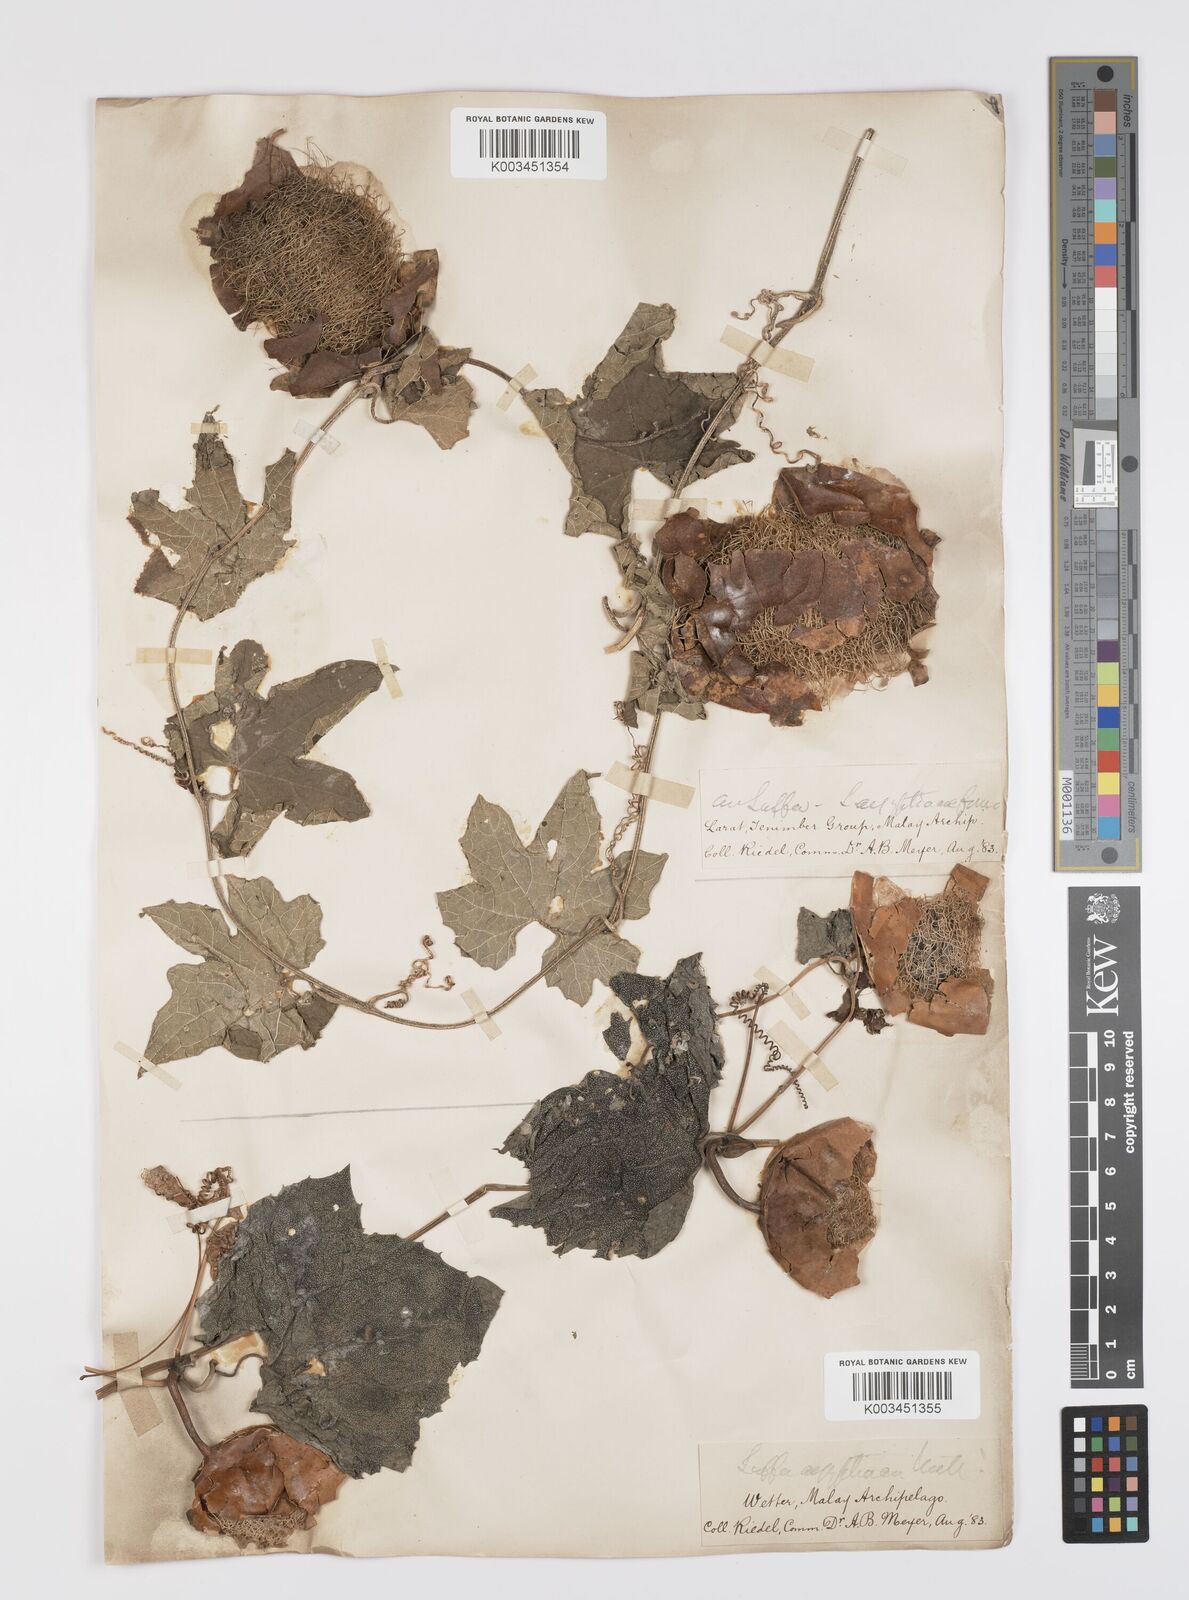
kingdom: Plantae
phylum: Tracheophyta
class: Magnoliopsida
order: Cucurbitales
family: Cucurbitaceae
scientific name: Cucurbitaceae
